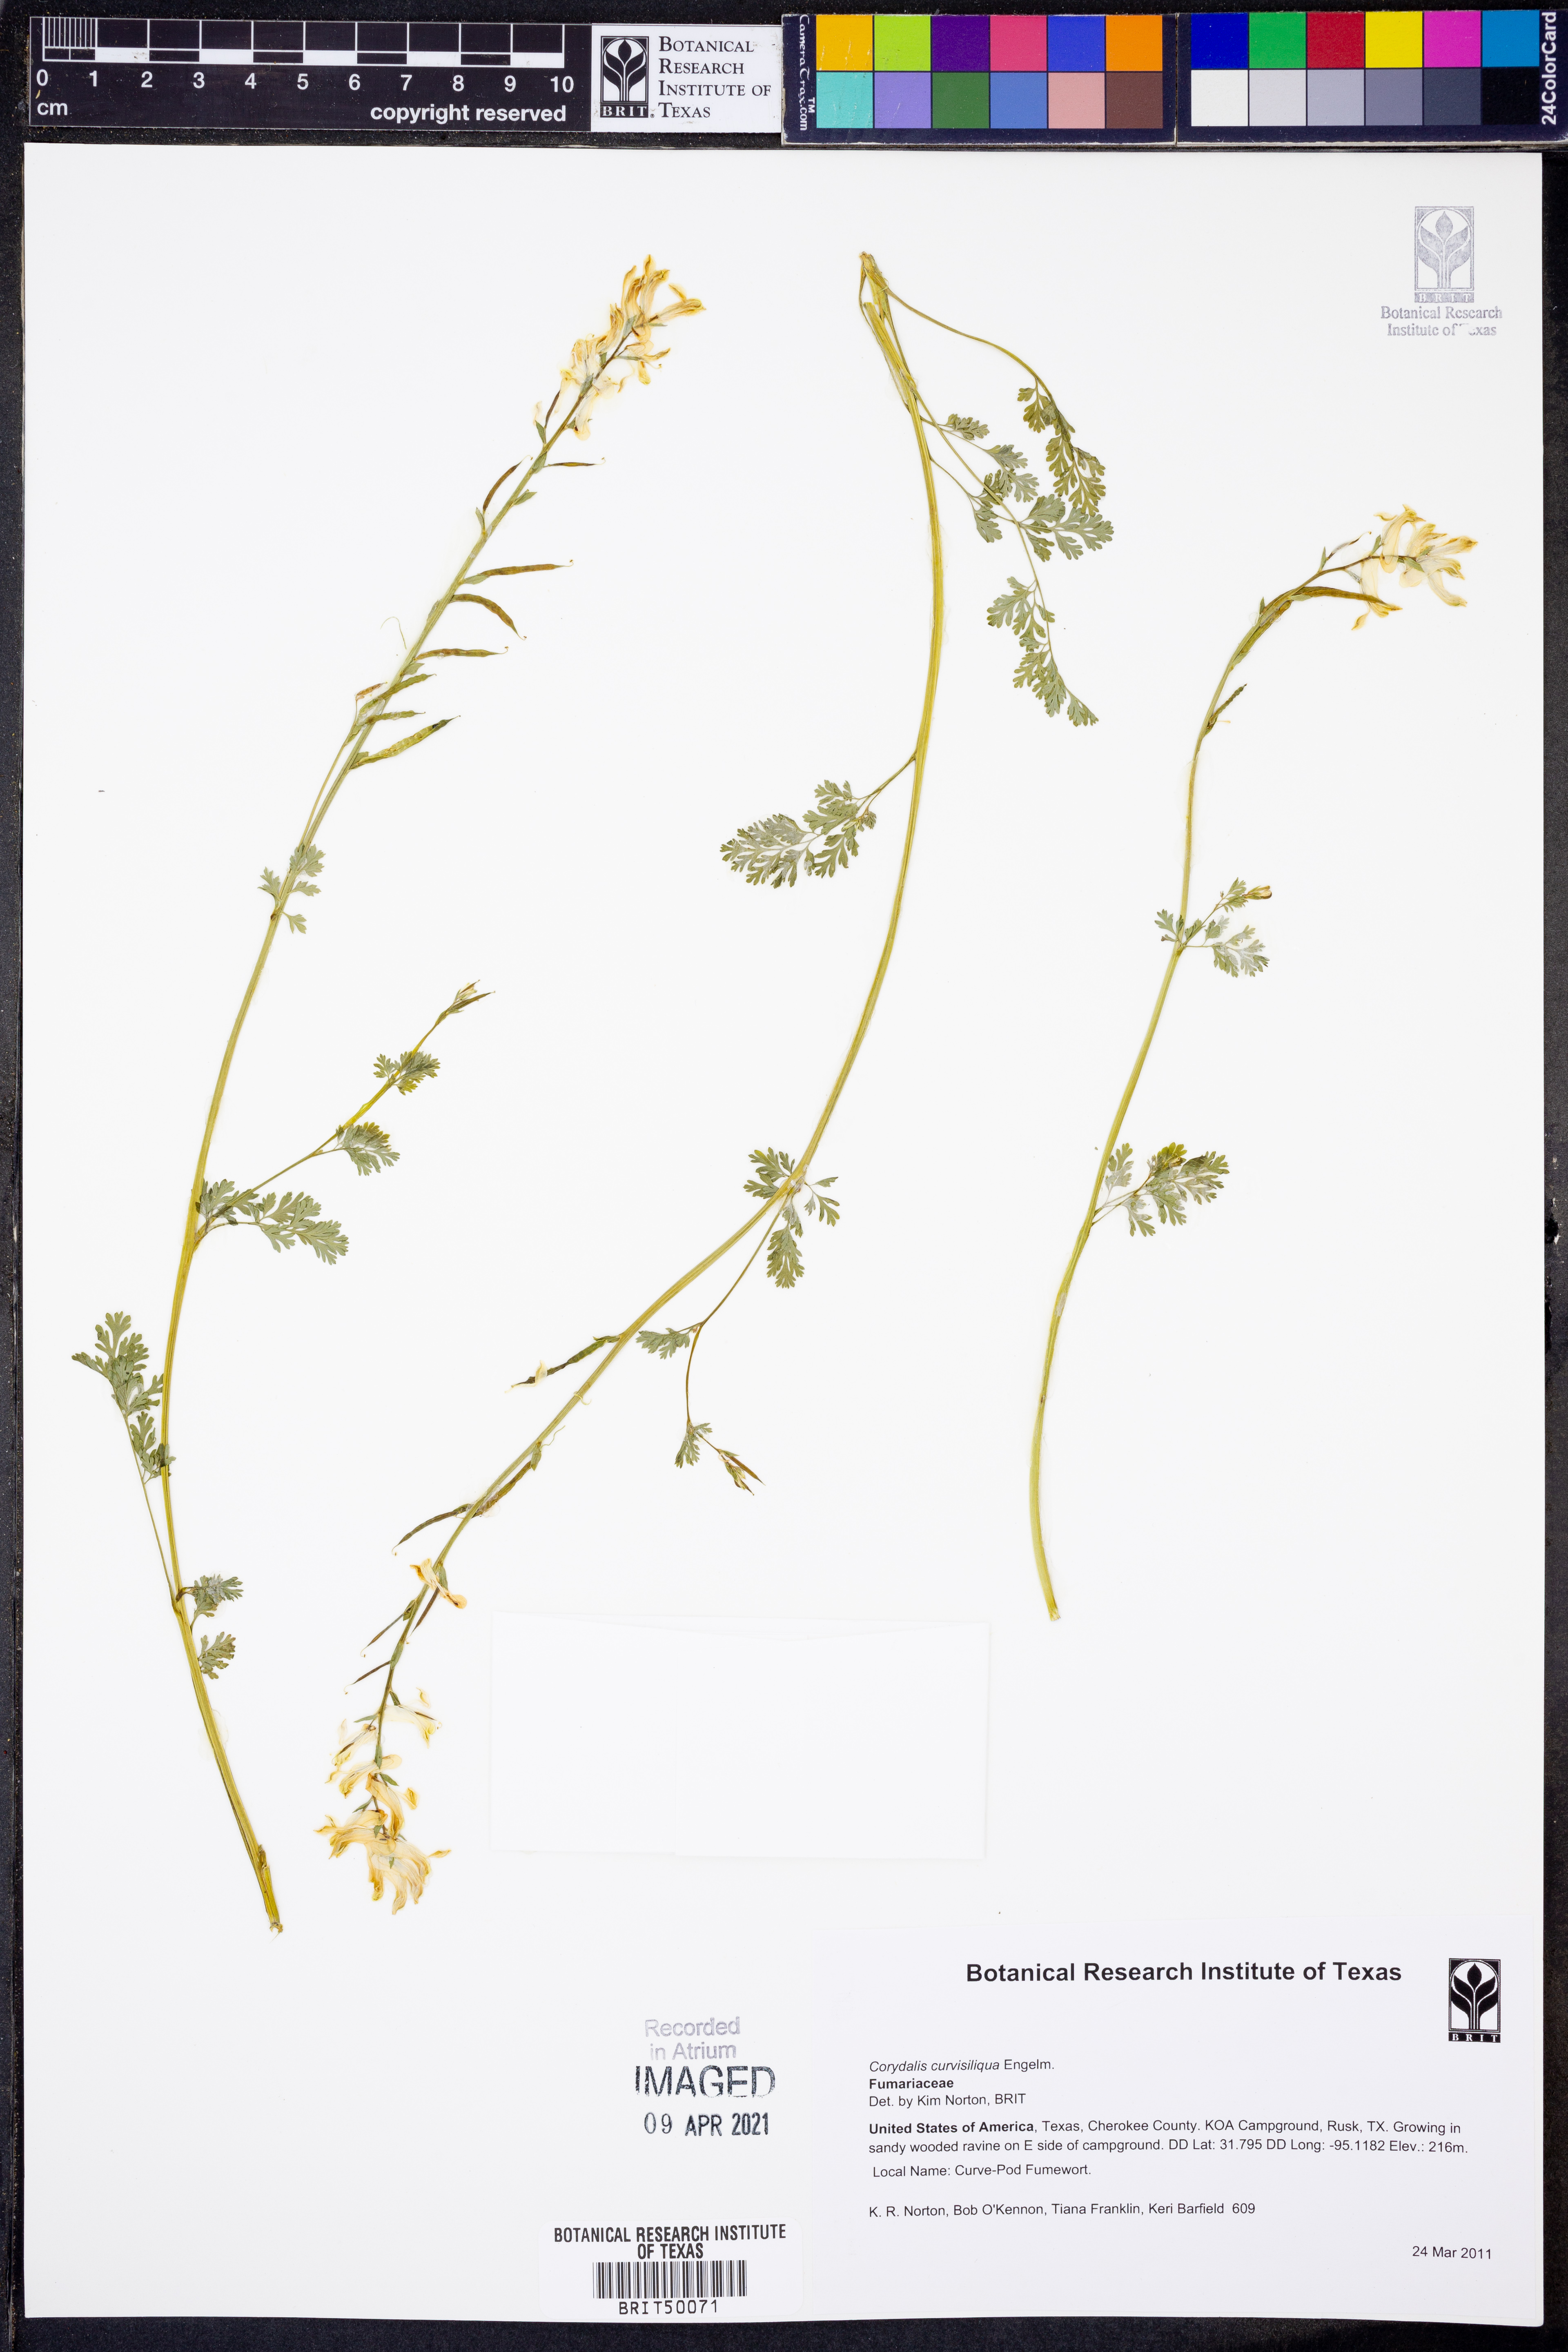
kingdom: Plantae
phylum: Tracheophyta
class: Magnoliopsida
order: Ranunculales
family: Papaveraceae
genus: Corydalis
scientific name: Corydalis curvisiliqua
